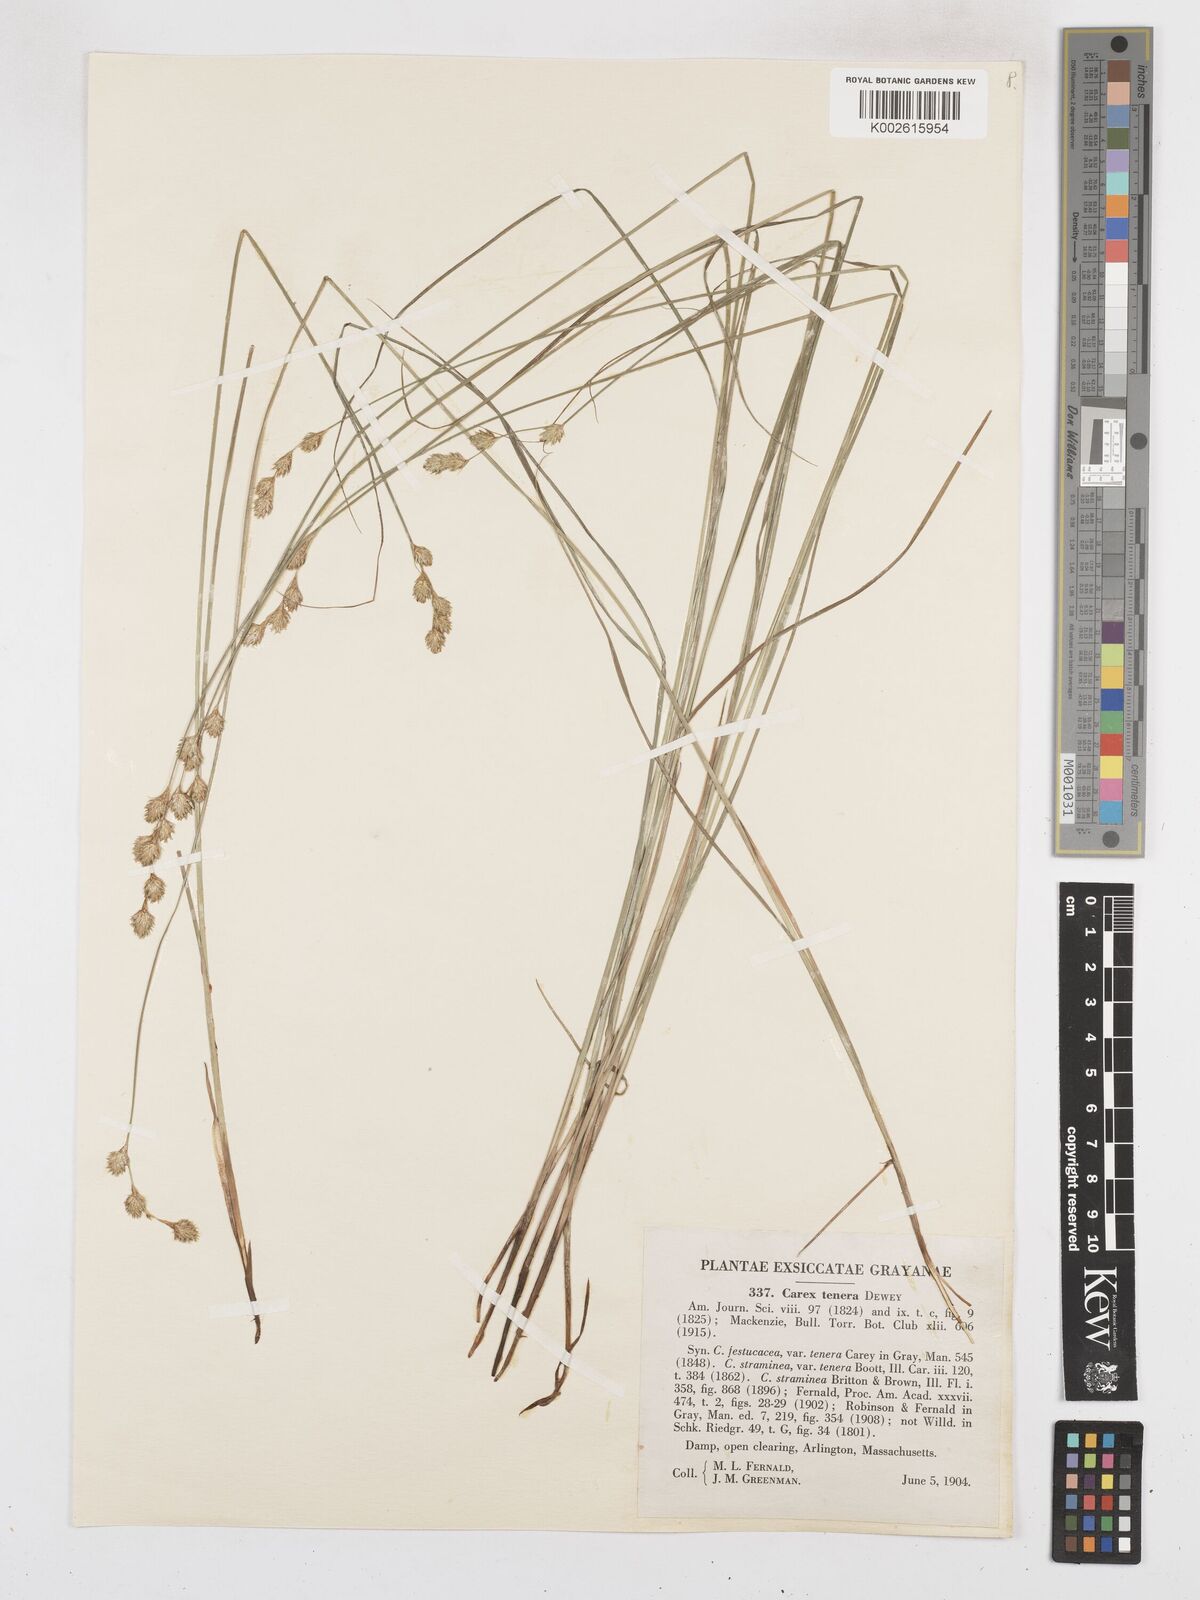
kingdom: Plantae
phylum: Tracheophyta
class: Liliopsida
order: Poales
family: Cyperaceae
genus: Carex
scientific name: Carex tenera
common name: Broad-fruited sedge
